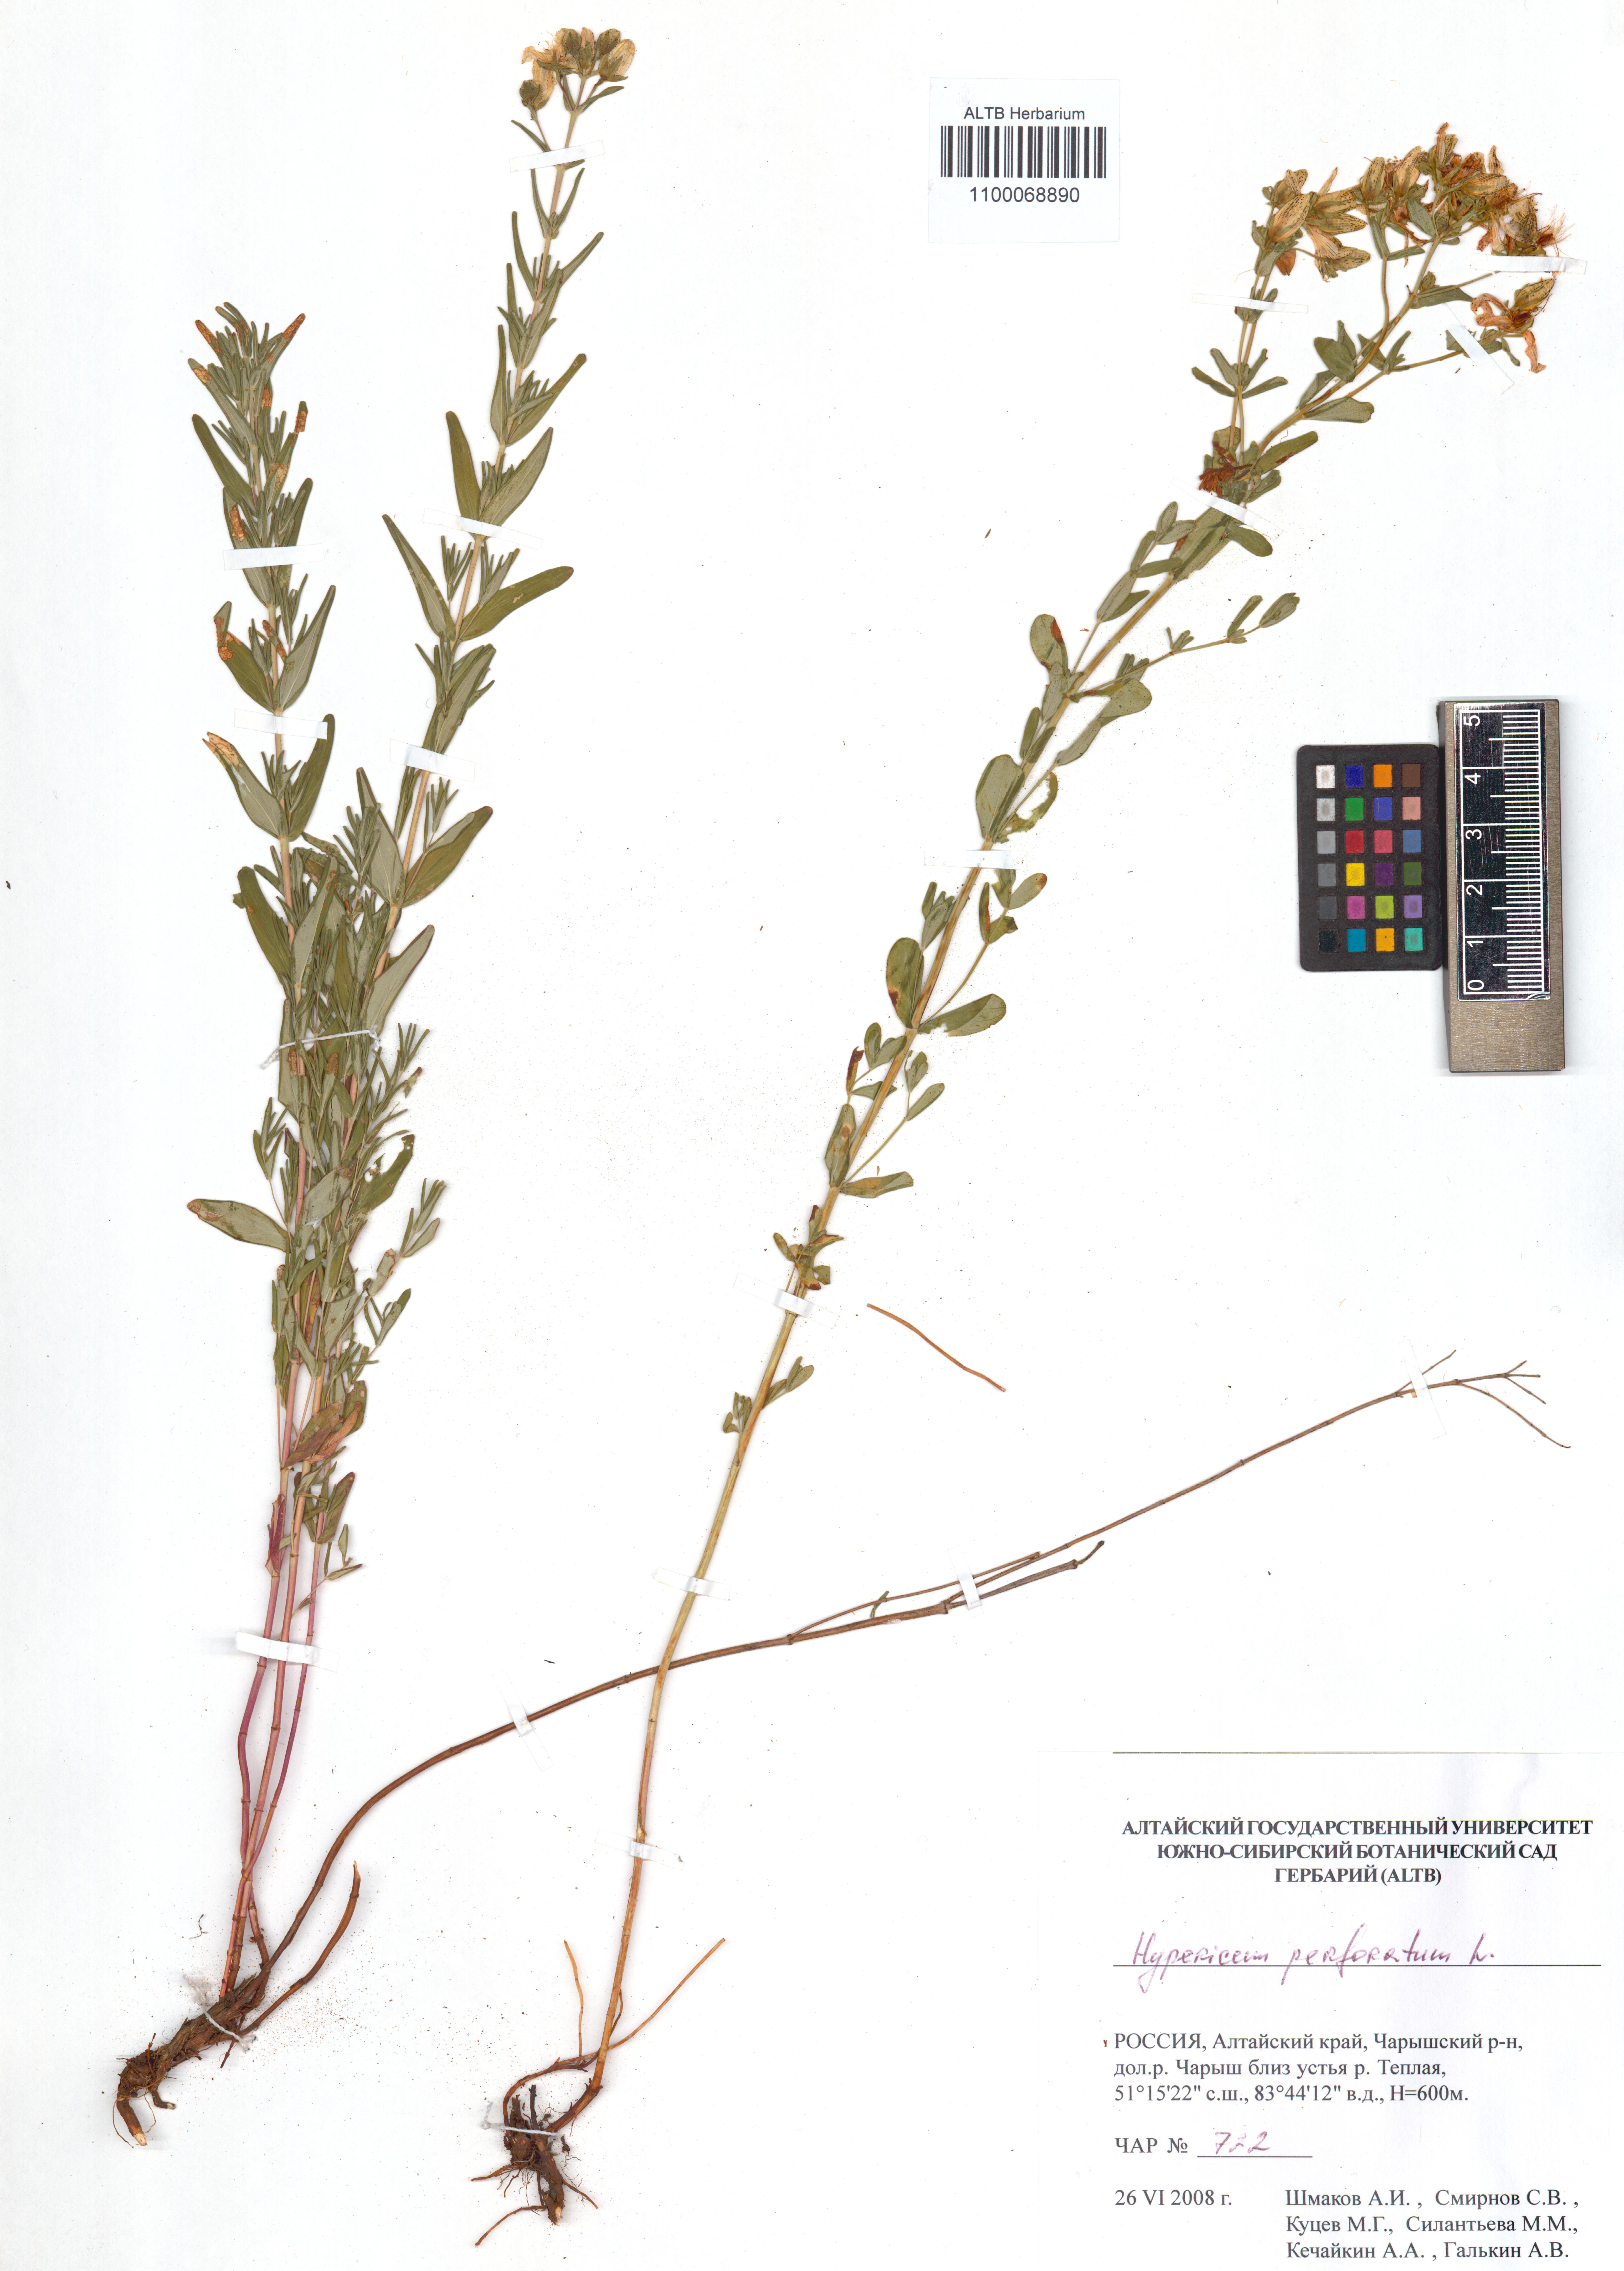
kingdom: Plantae
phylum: Tracheophyta
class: Magnoliopsida
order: Malpighiales
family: Hypericaceae
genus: Hypericum
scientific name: Hypericum perforatum
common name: Common st. johnswort
